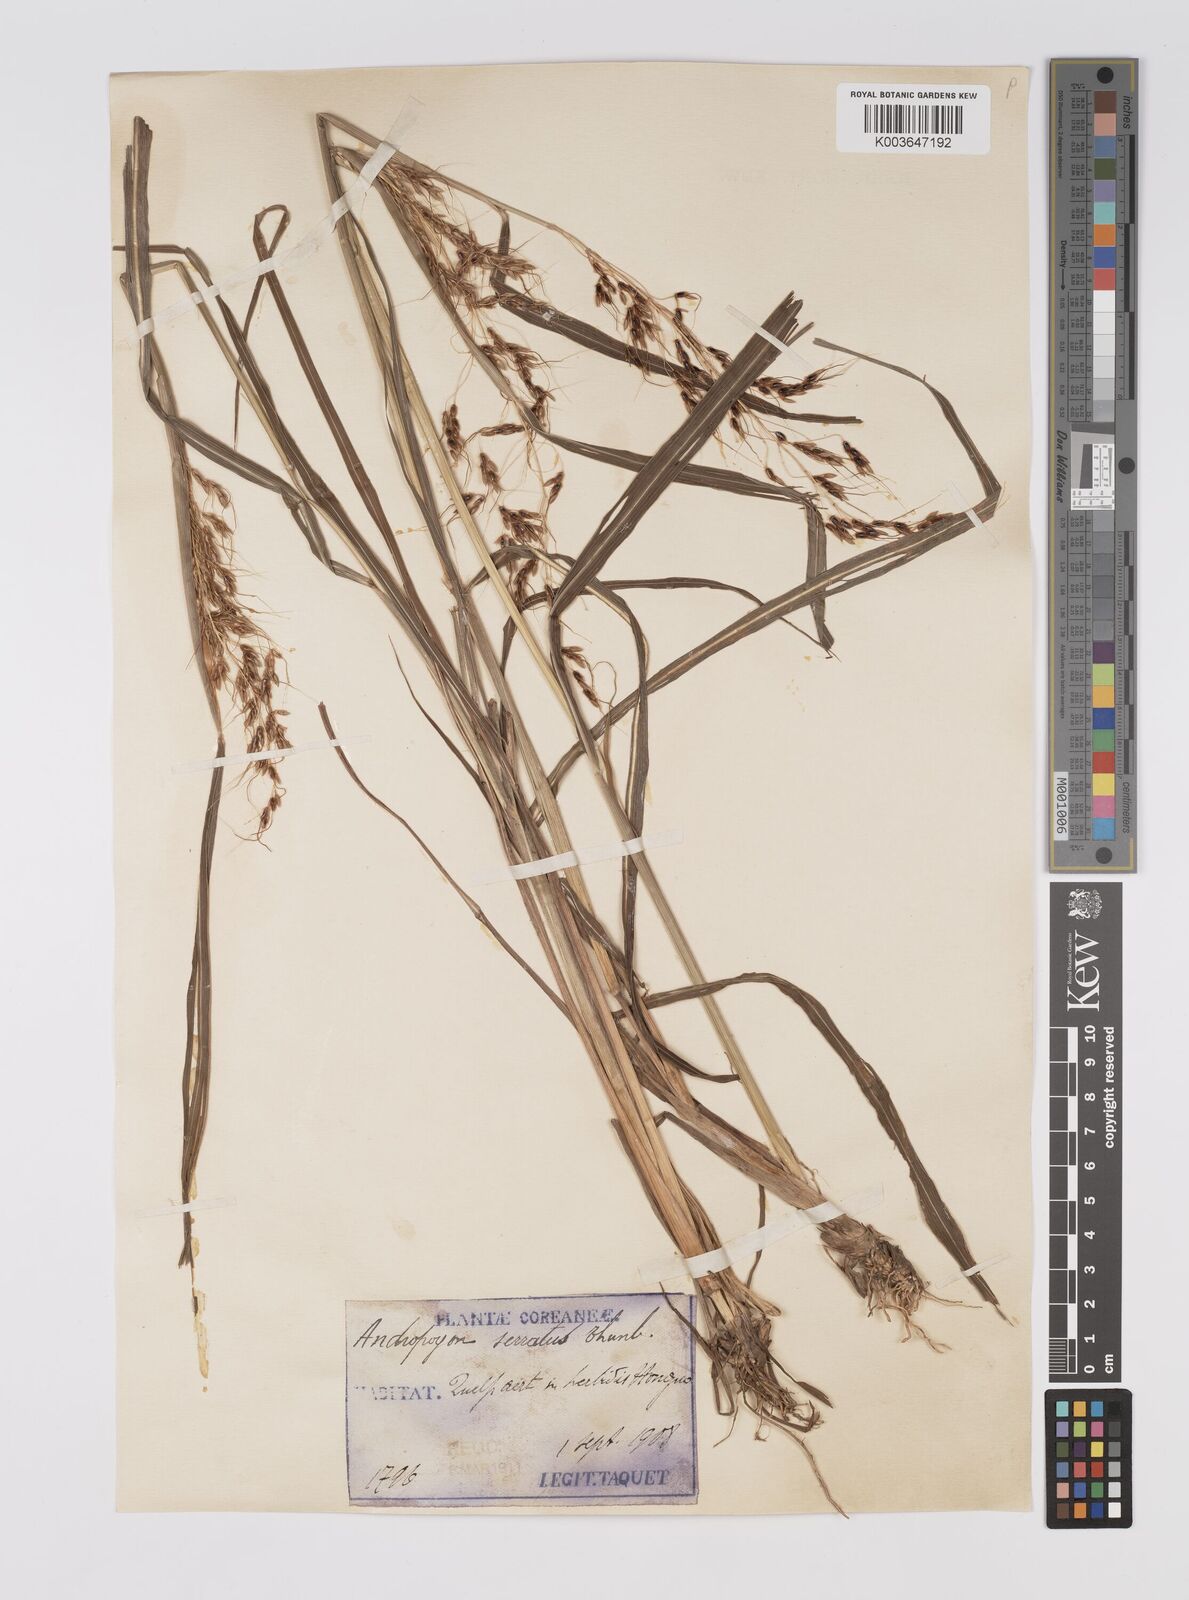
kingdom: Plantae
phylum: Tracheophyta
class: Liliopsida
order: Poales
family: Poaceae
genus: Sorghum
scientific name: Sorghum nitidum
